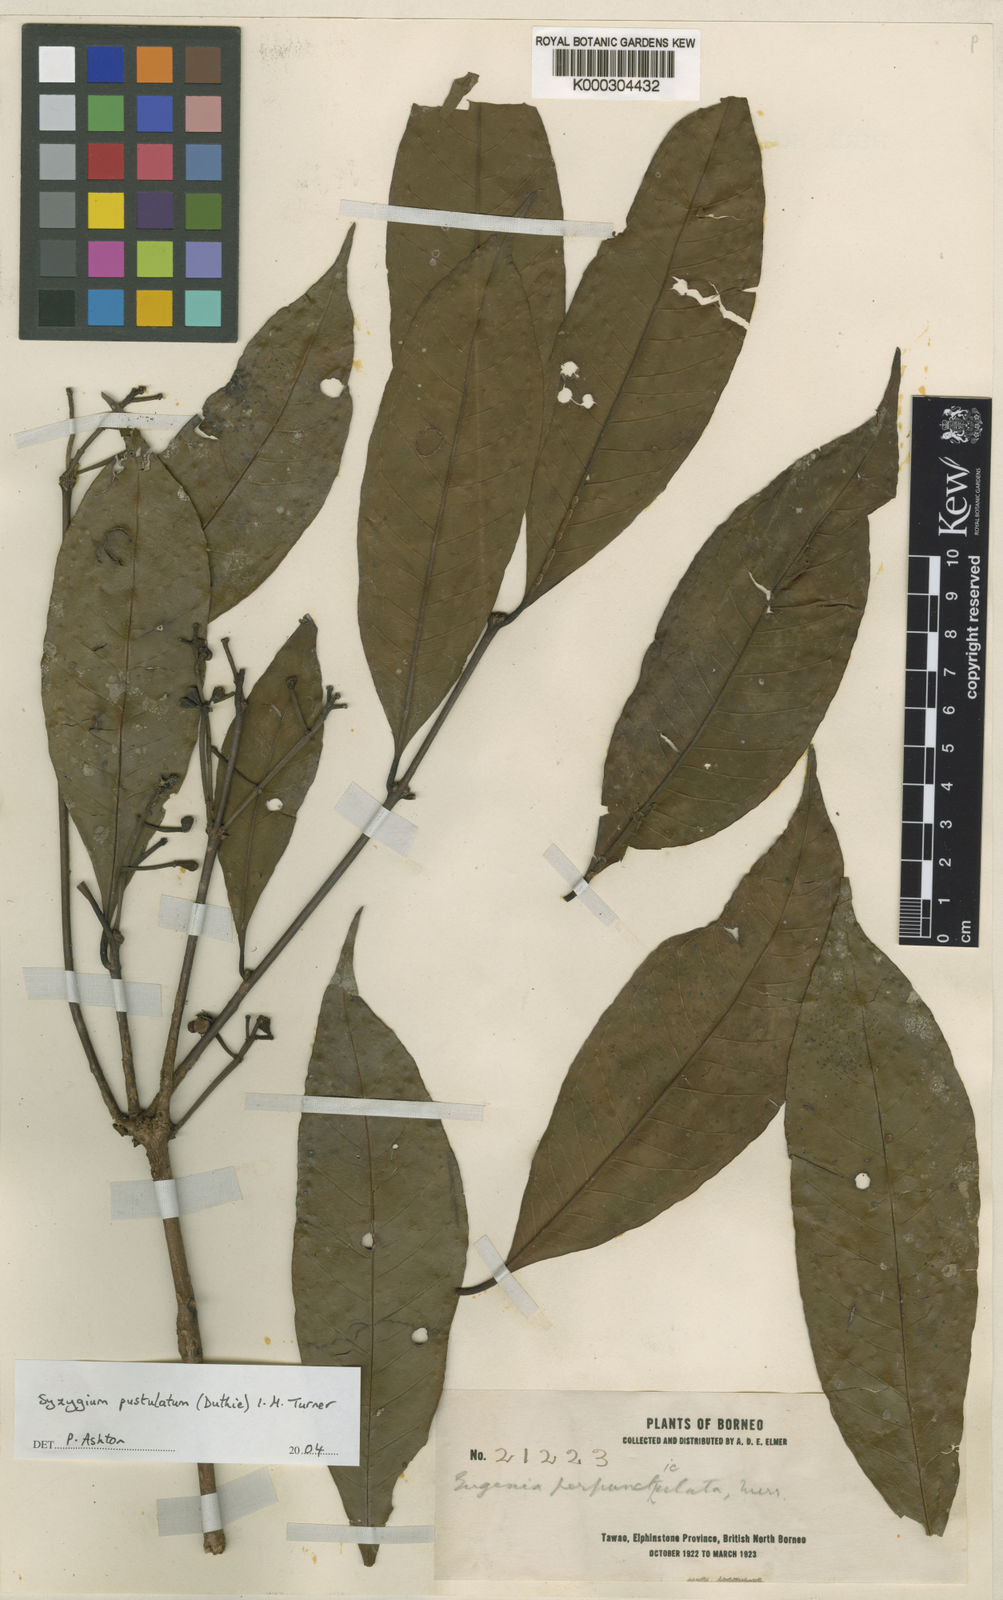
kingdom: Plantae
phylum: Tracheophyta
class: Magnoliopsida
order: Myrtales
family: Myrtaceae
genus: Syzygium
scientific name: Syzygium pustulatum
